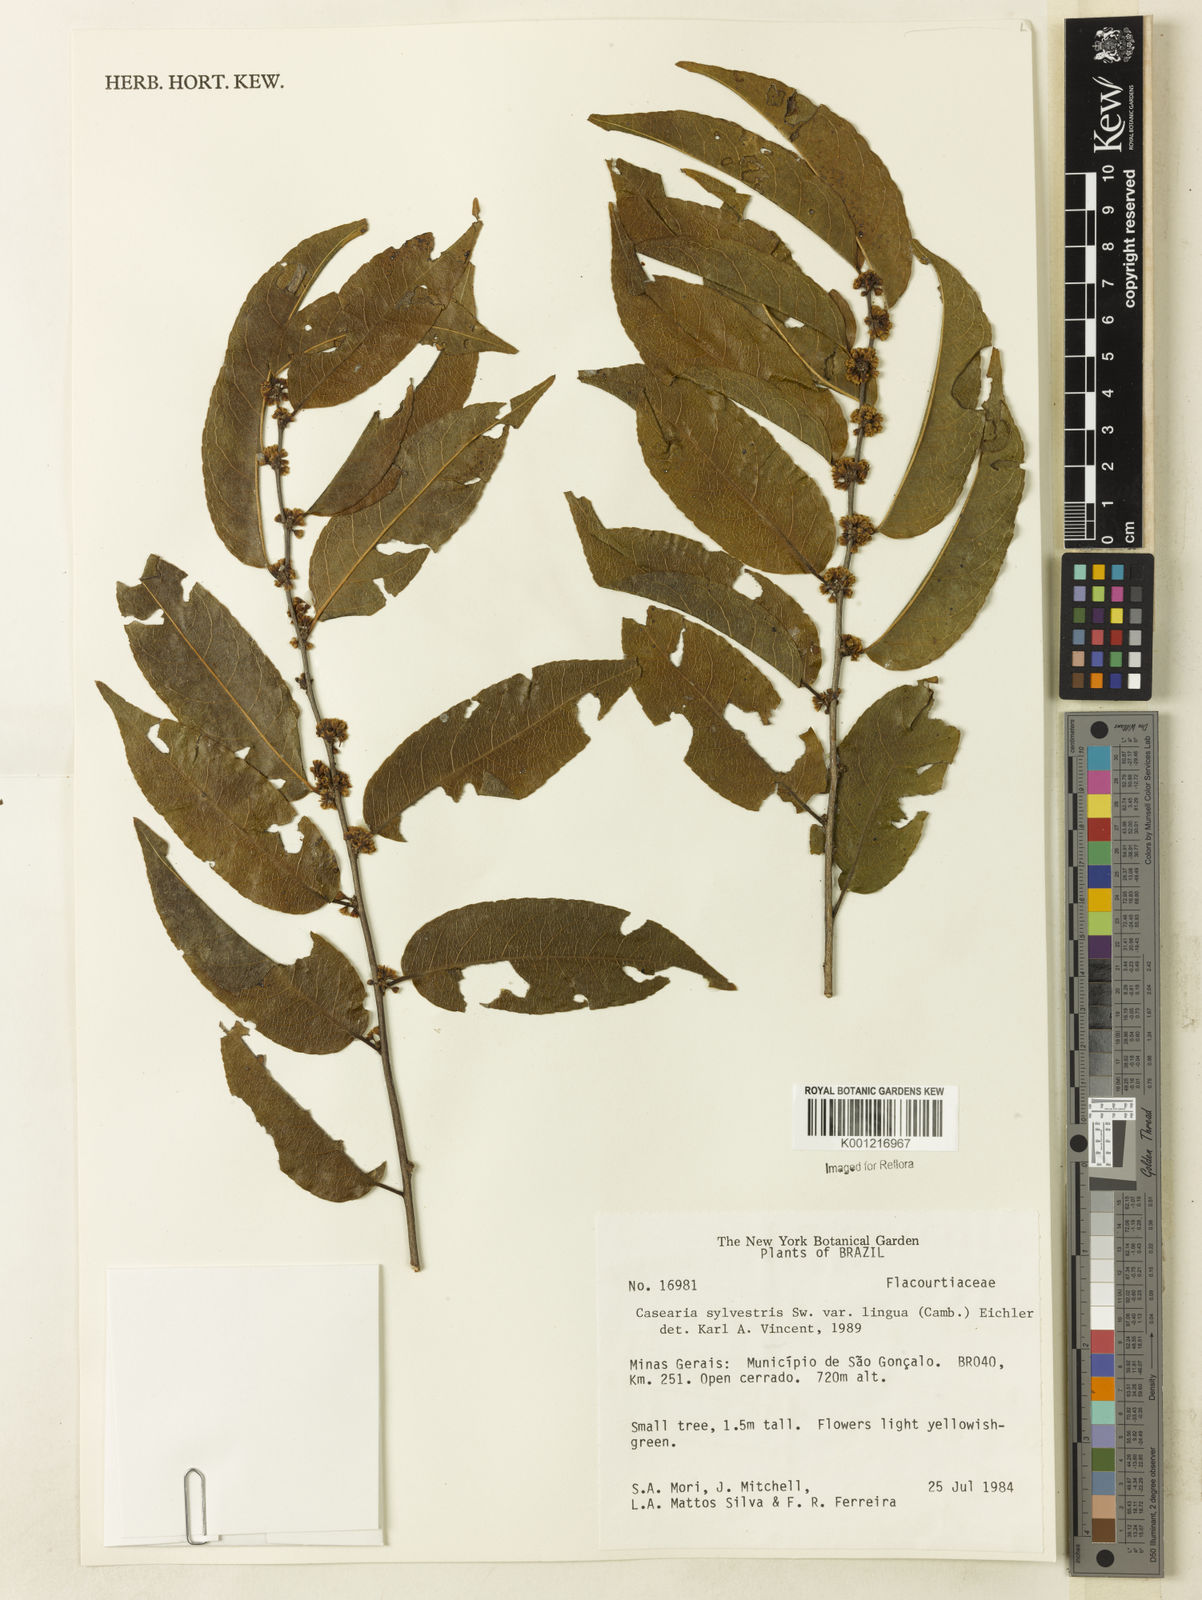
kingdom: Plantae
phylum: Tracheophyta
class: Magnoliopsida
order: Malpighiales
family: Salicaceae
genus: Casearia
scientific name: Casearia sylvestris
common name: Wild sage
